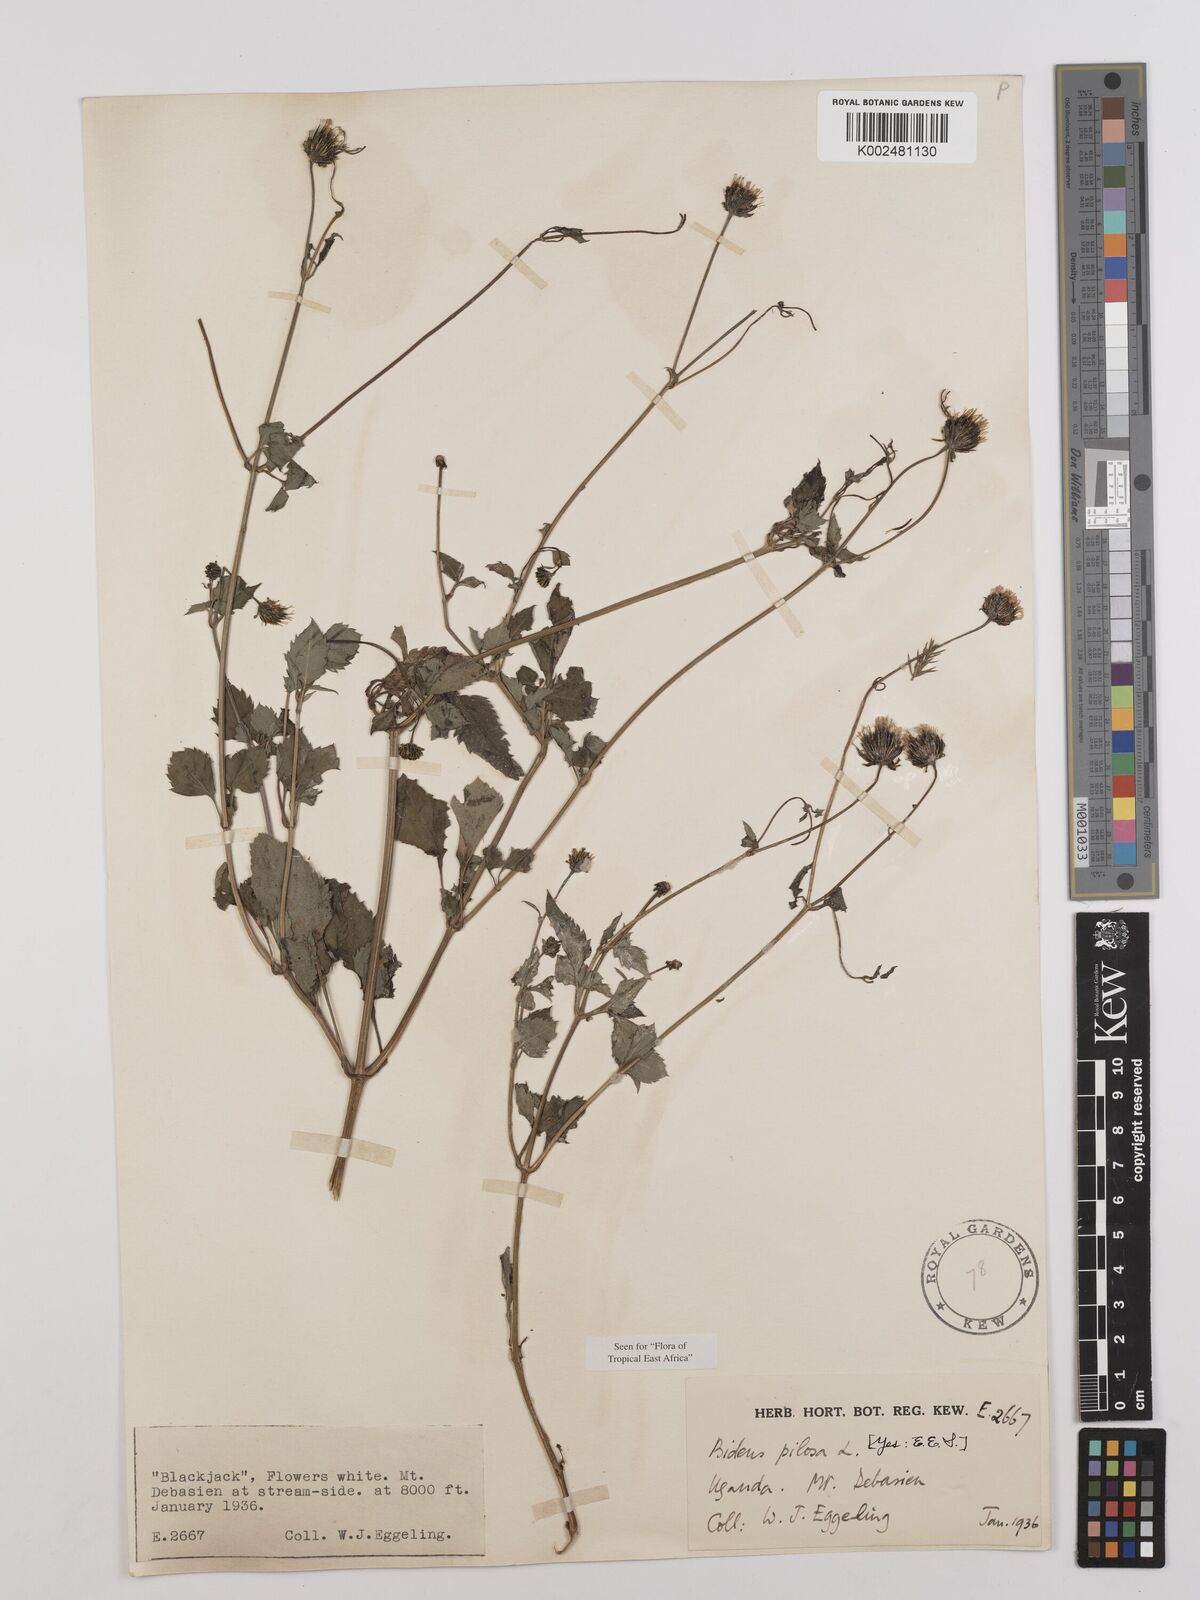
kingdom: Plantae
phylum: Tracheophyta
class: Magnoliopsida
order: Asterales
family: Asteraceae
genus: Bidens
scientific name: Bidens pilosa
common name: Black-jack
